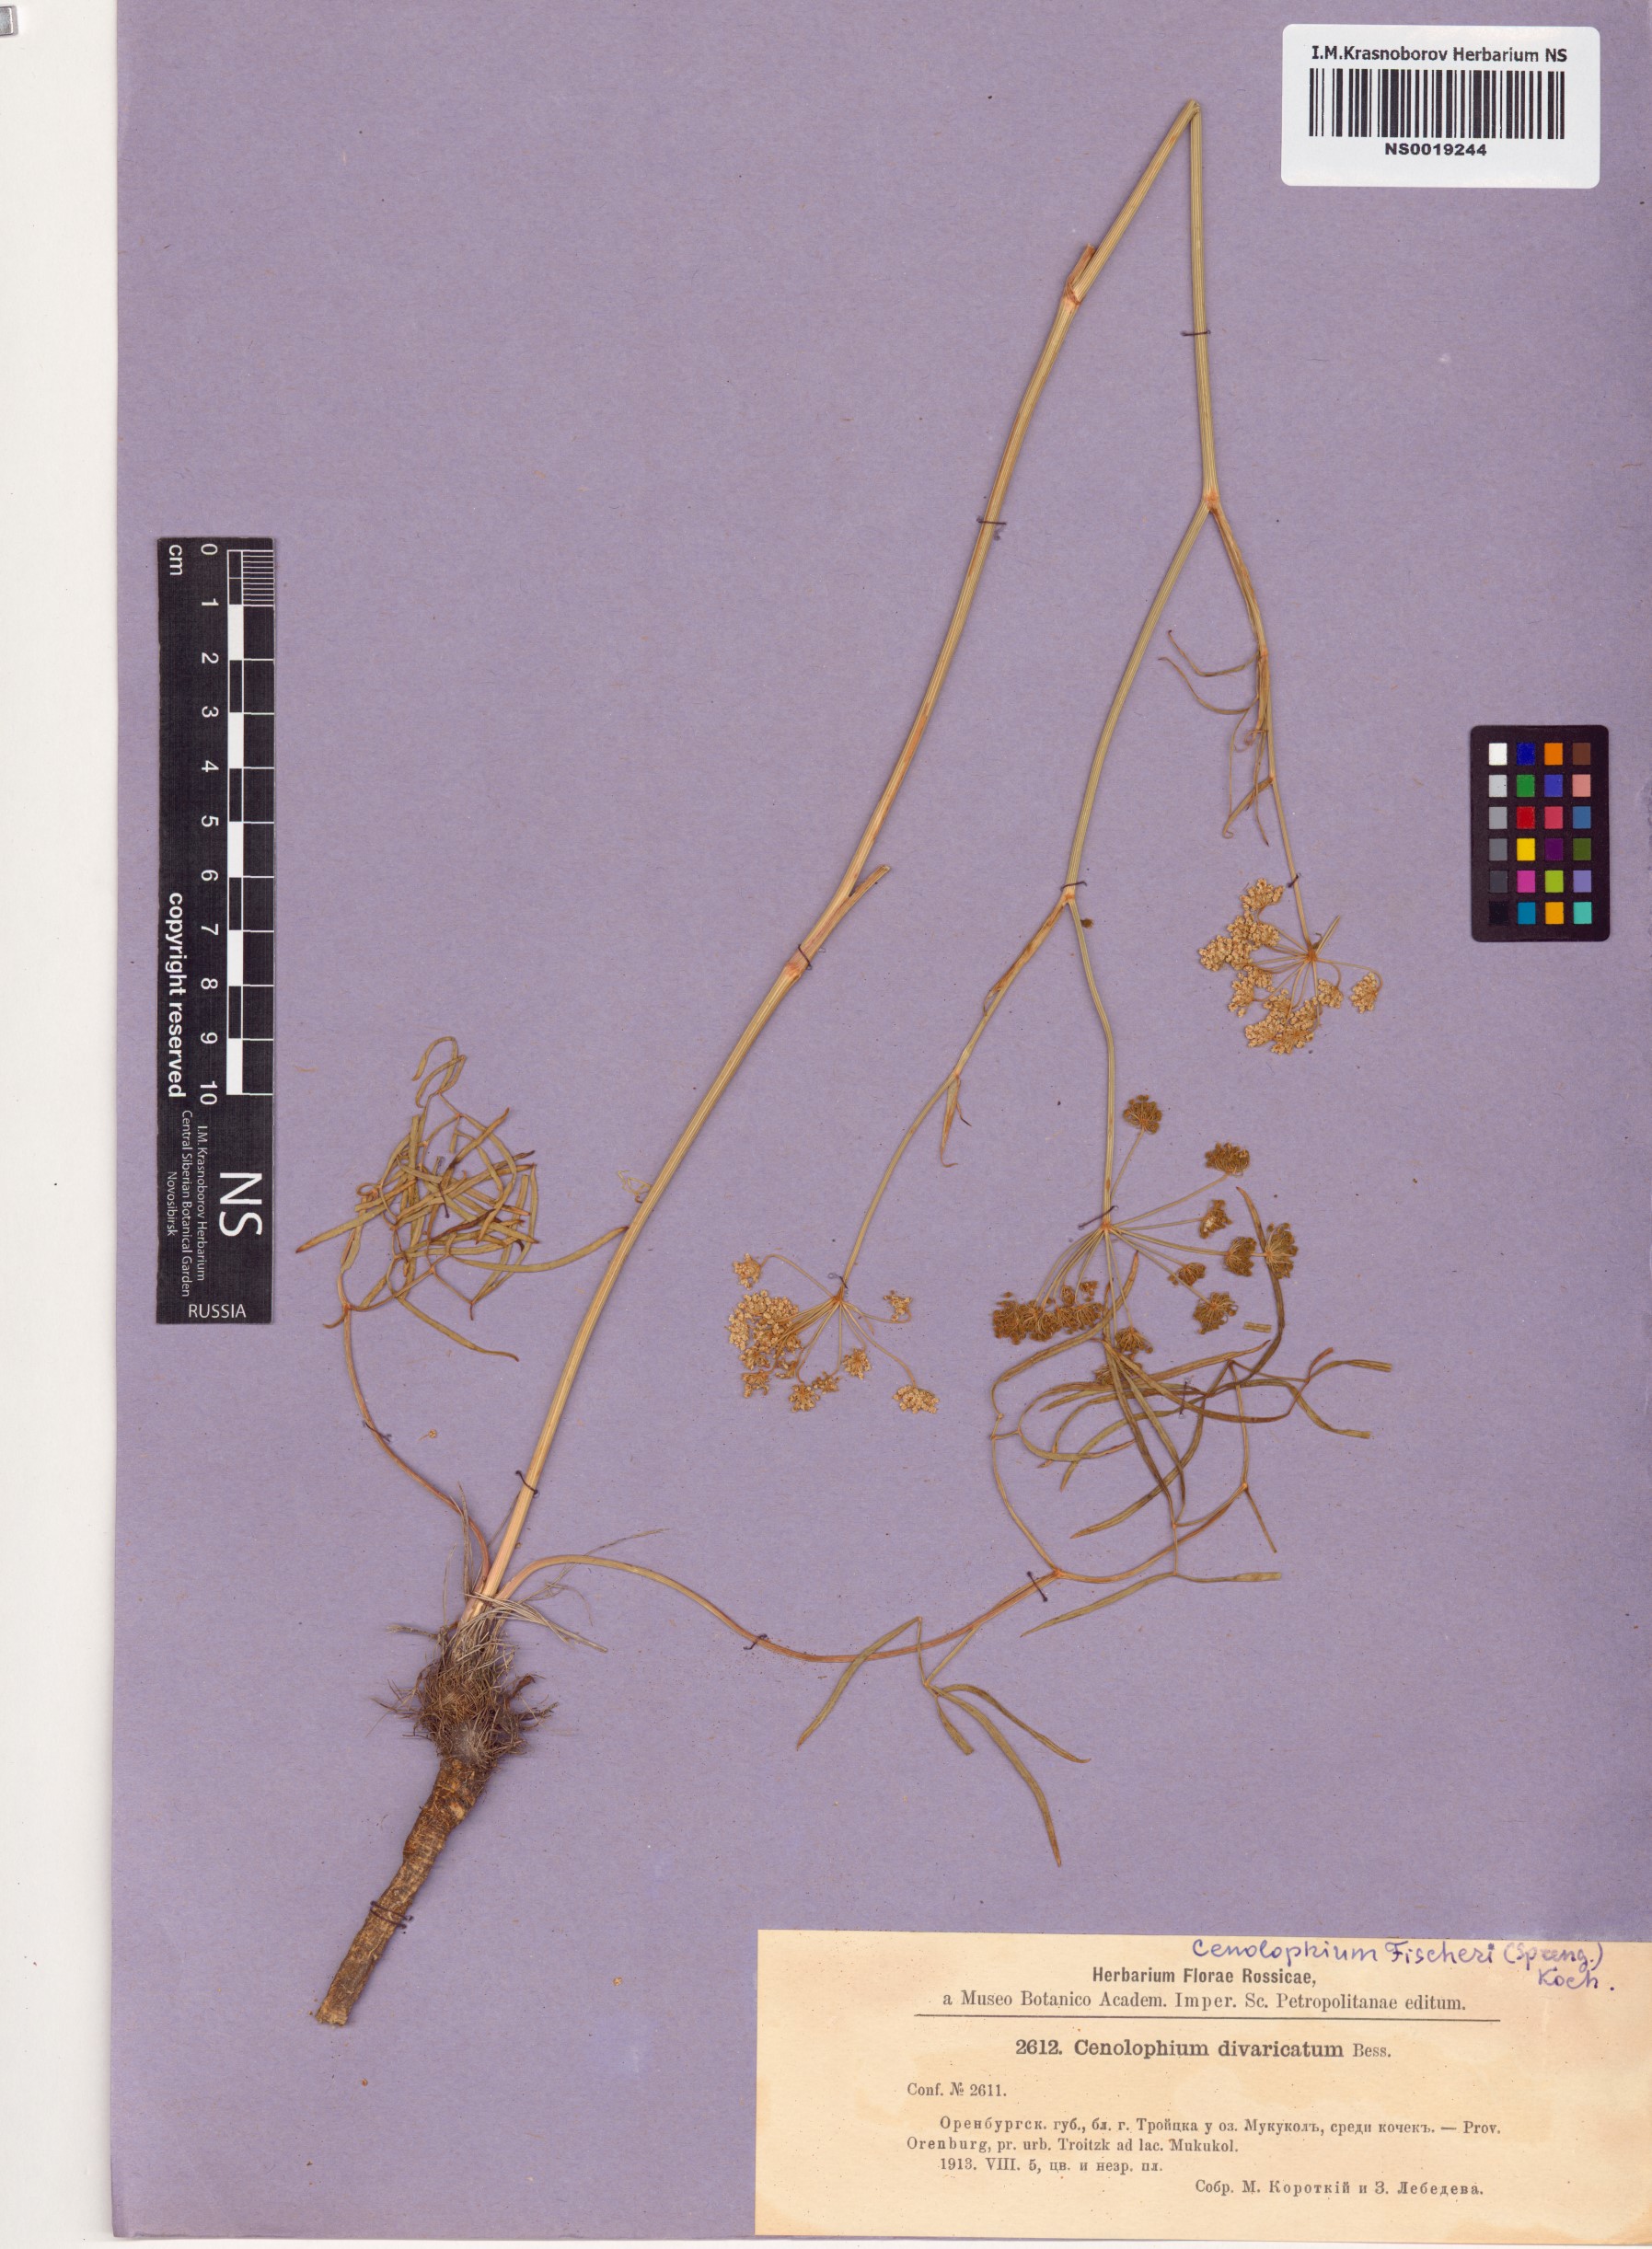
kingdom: Plantae
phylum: Tracheophyta
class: Magnoliopsida
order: Apiales
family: Apiaceae
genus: Cenolophium
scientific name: Cenolophium fischeri
